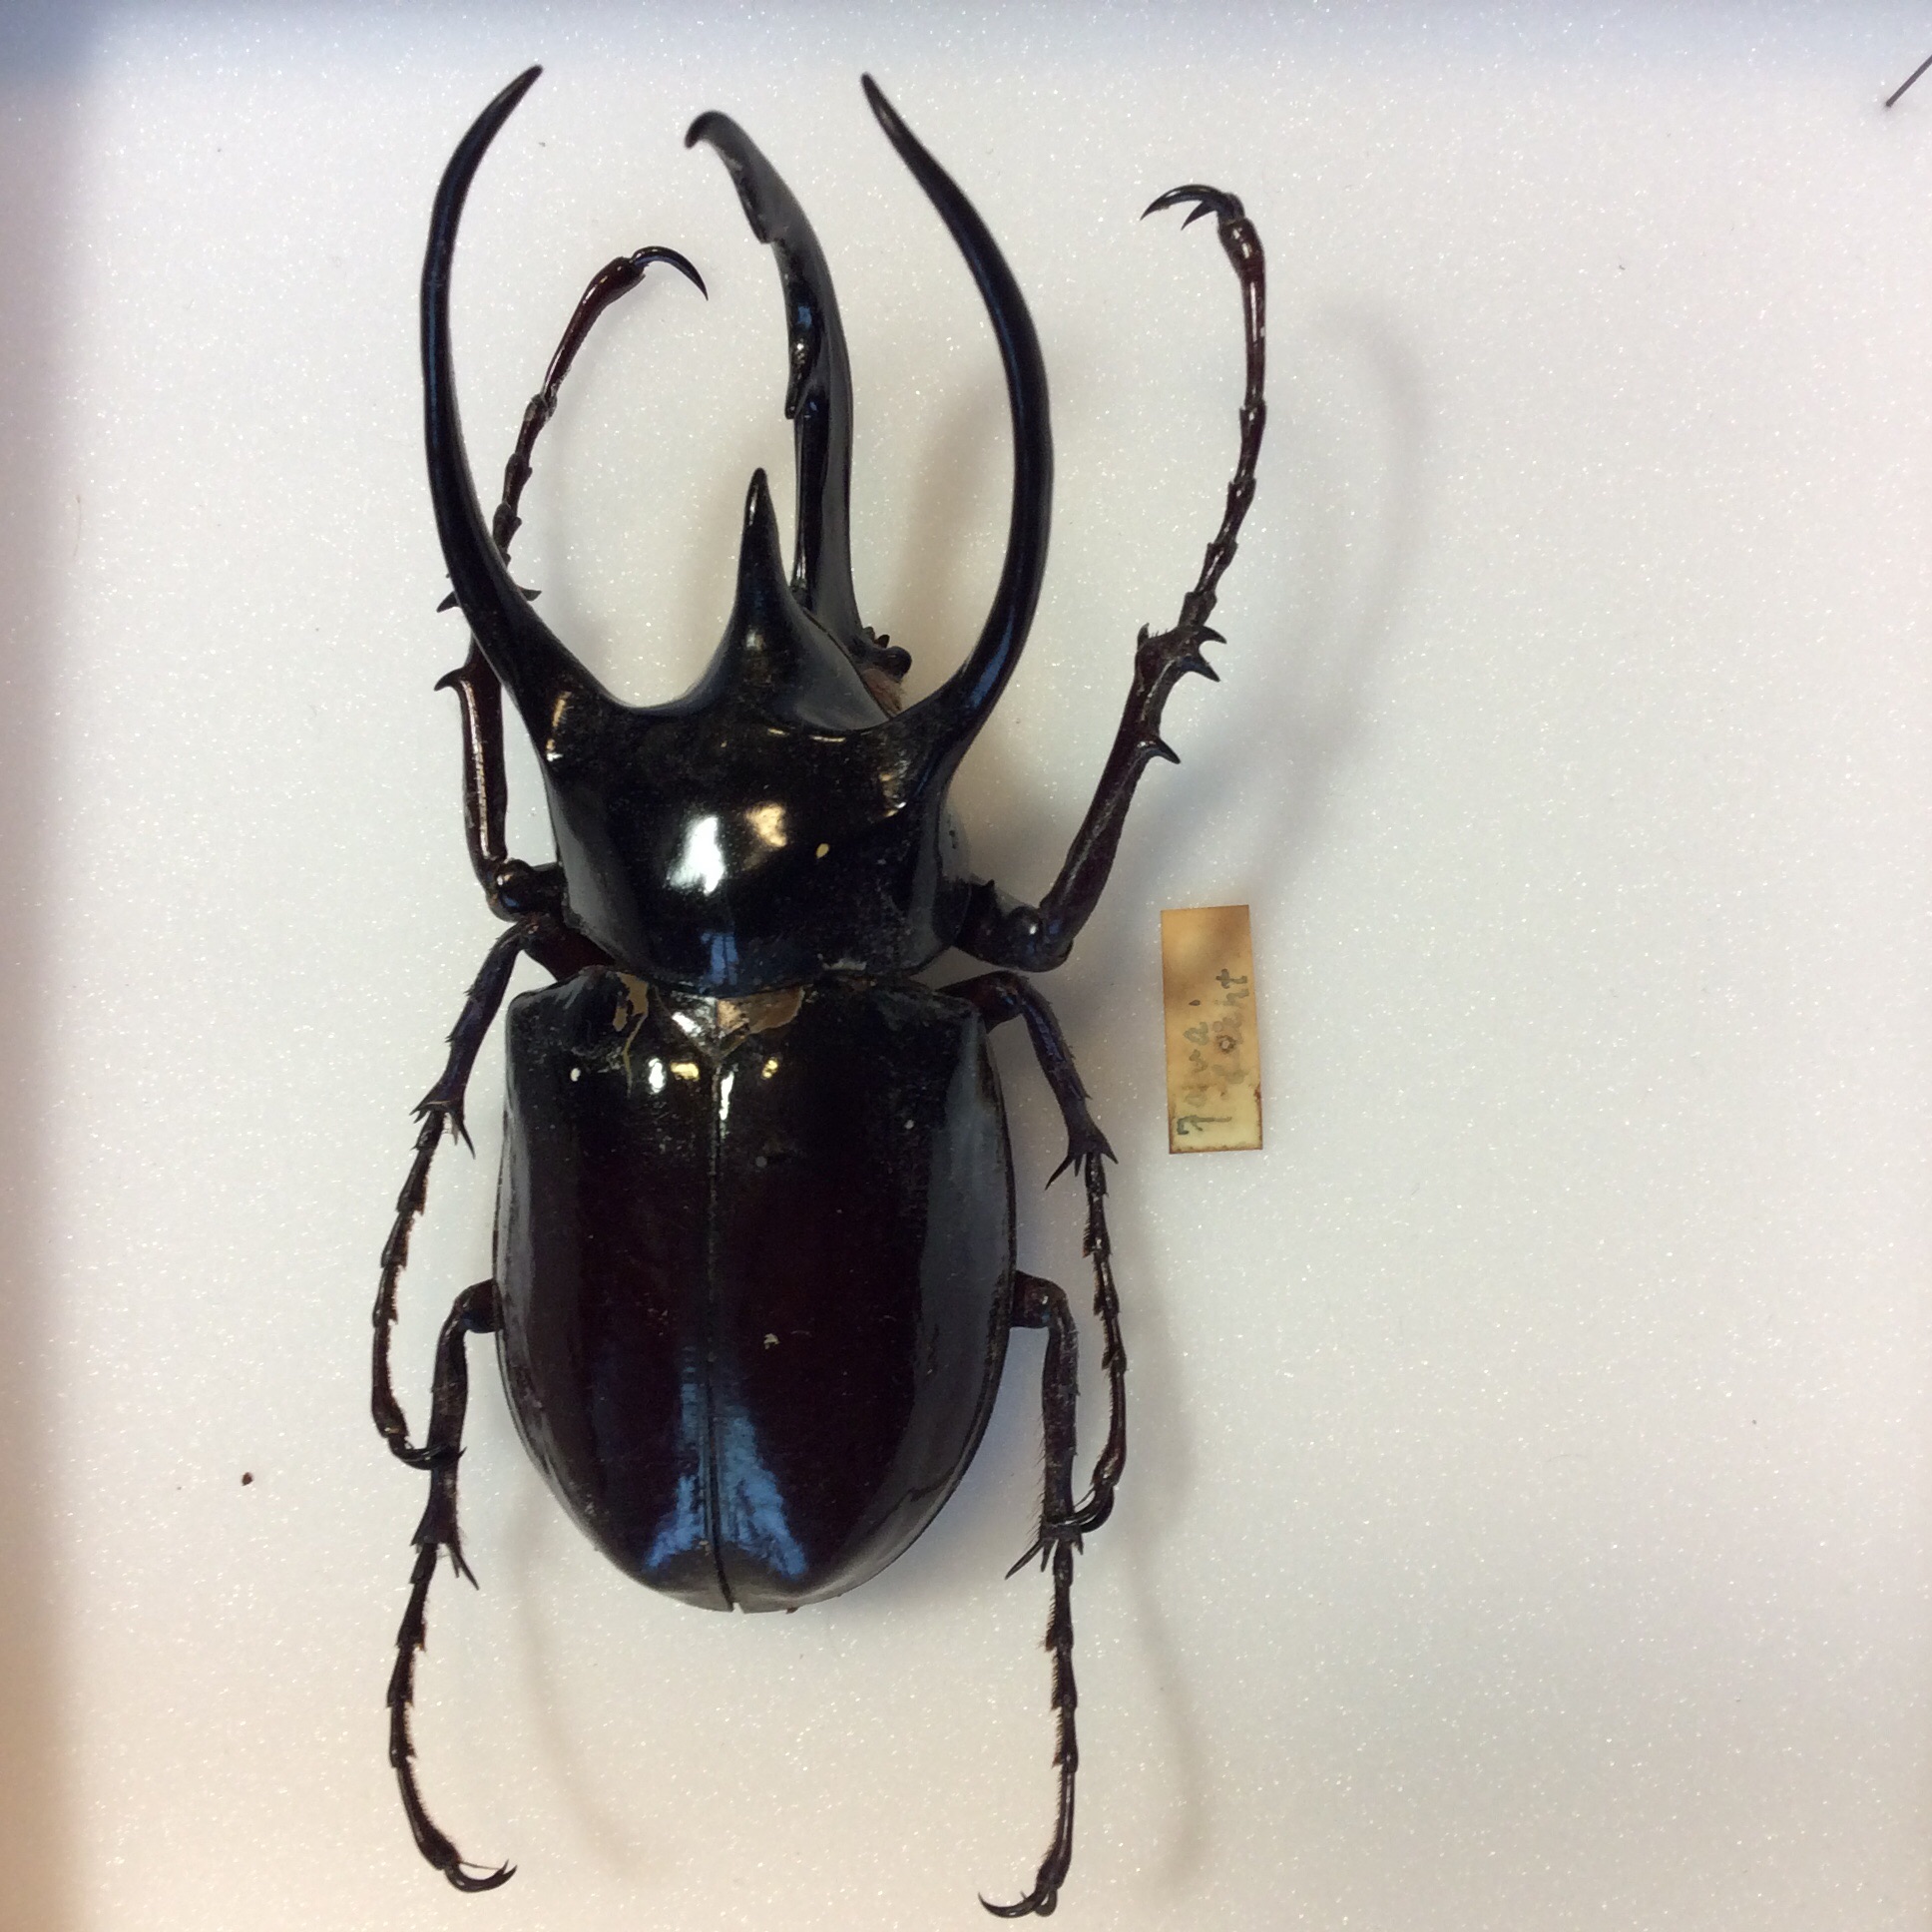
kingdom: Animalia
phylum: Arthropoda
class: Insecta
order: Coleoptera
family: Scarabaeidae
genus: Chalcosoma
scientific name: Chalcosoma atlas
